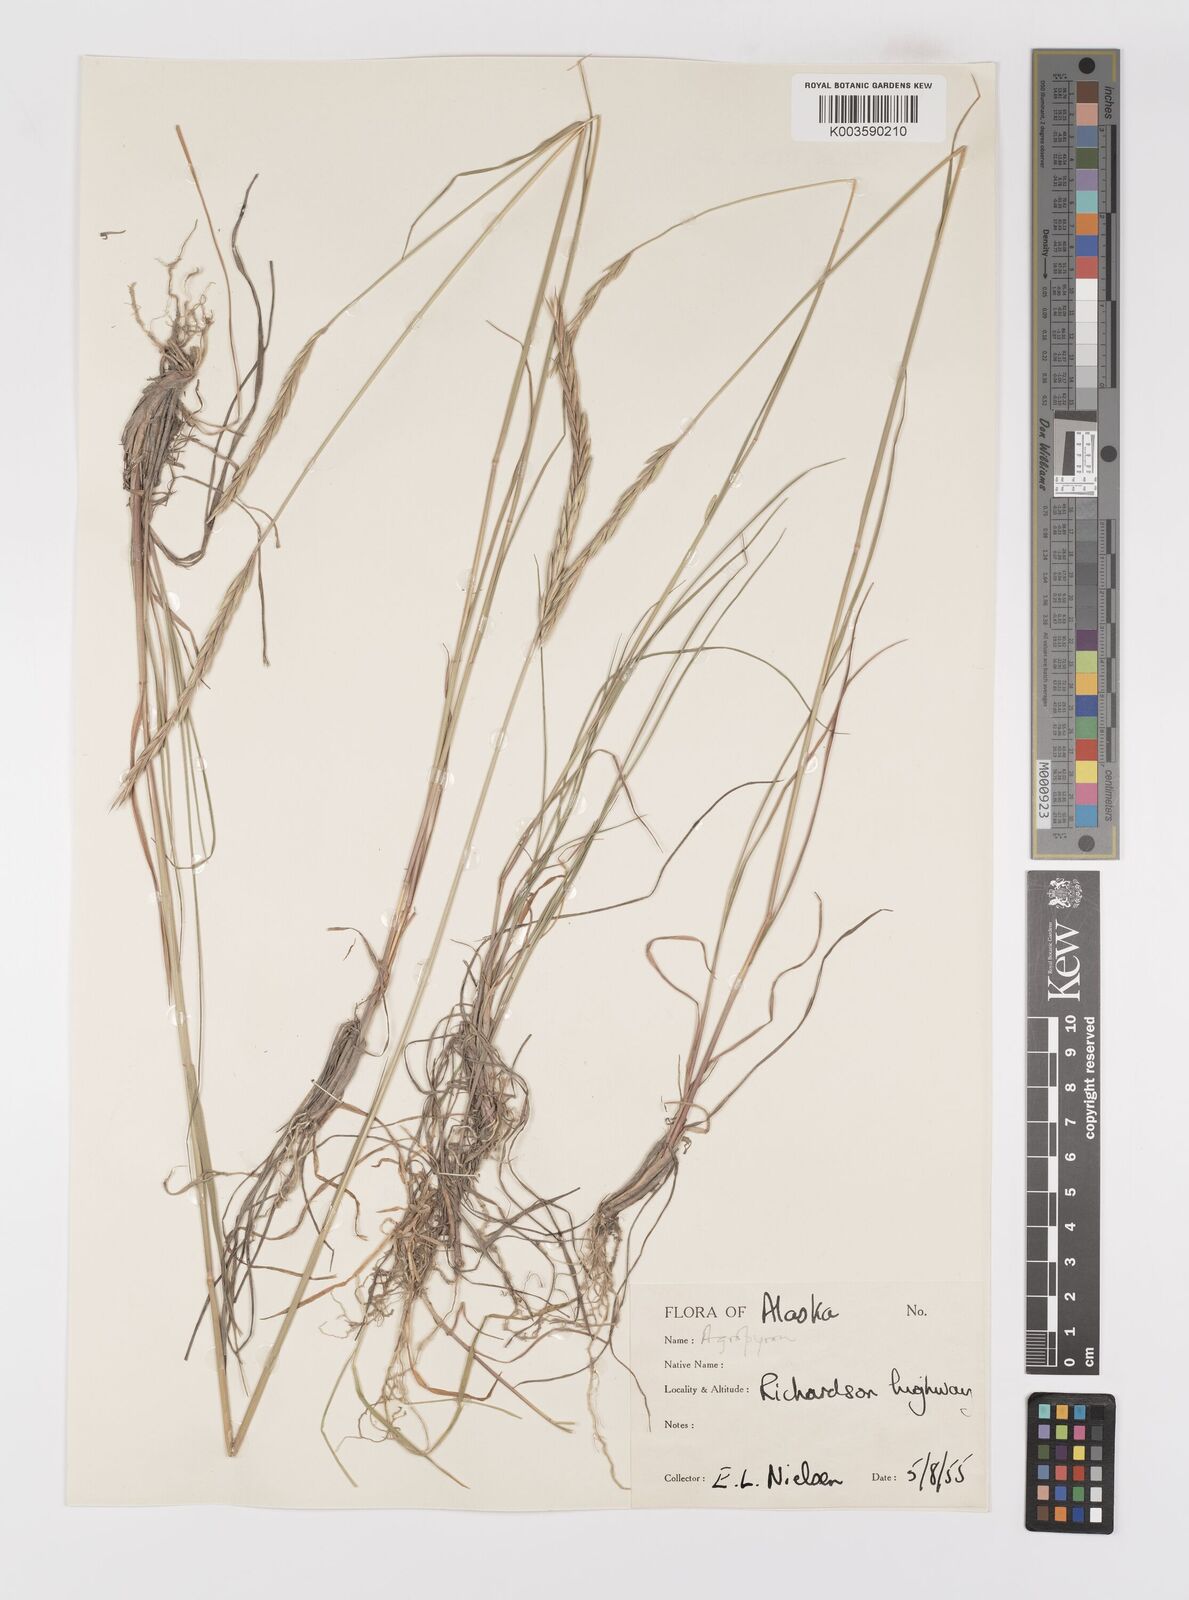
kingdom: Plantae
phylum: Tracheophyta
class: Liliopsida
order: Poales
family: Poaceae
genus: Elymus
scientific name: Elymus violaceus
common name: Arctic wheatgrass
